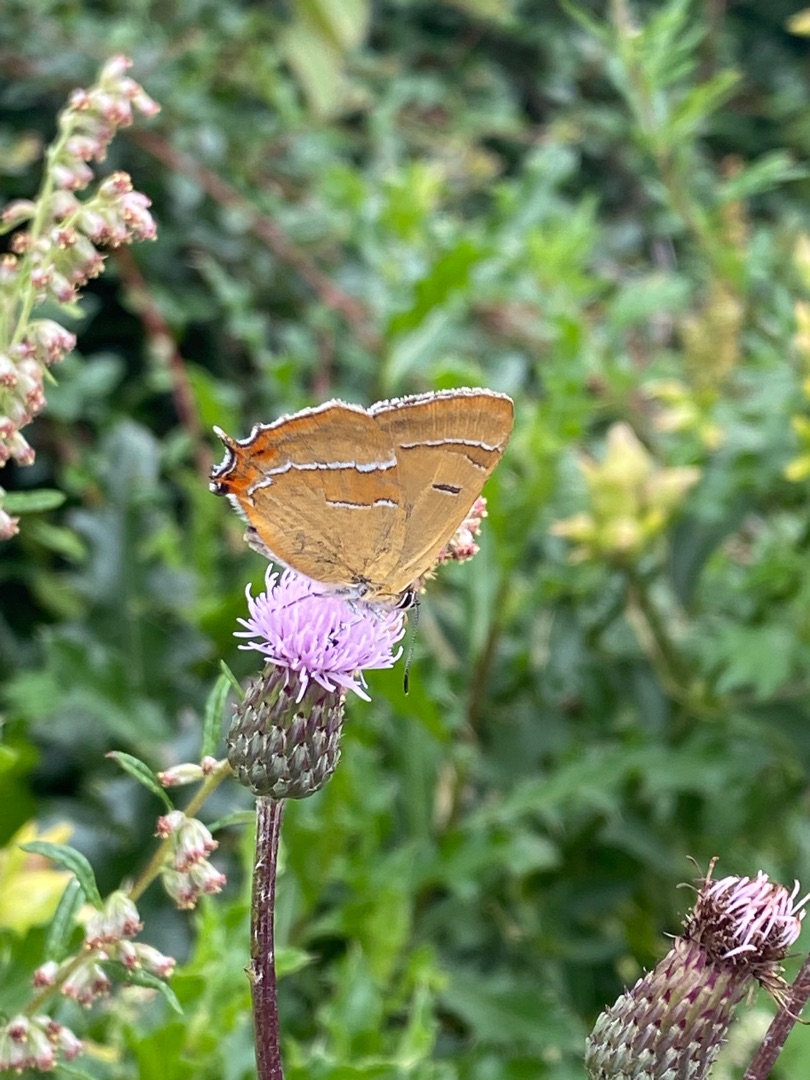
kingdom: Animalia
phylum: Arthropoda
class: Insecta
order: Lepidoptera
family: Lycaenidae
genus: Thecla
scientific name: Thecla betulae
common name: Guldhale
